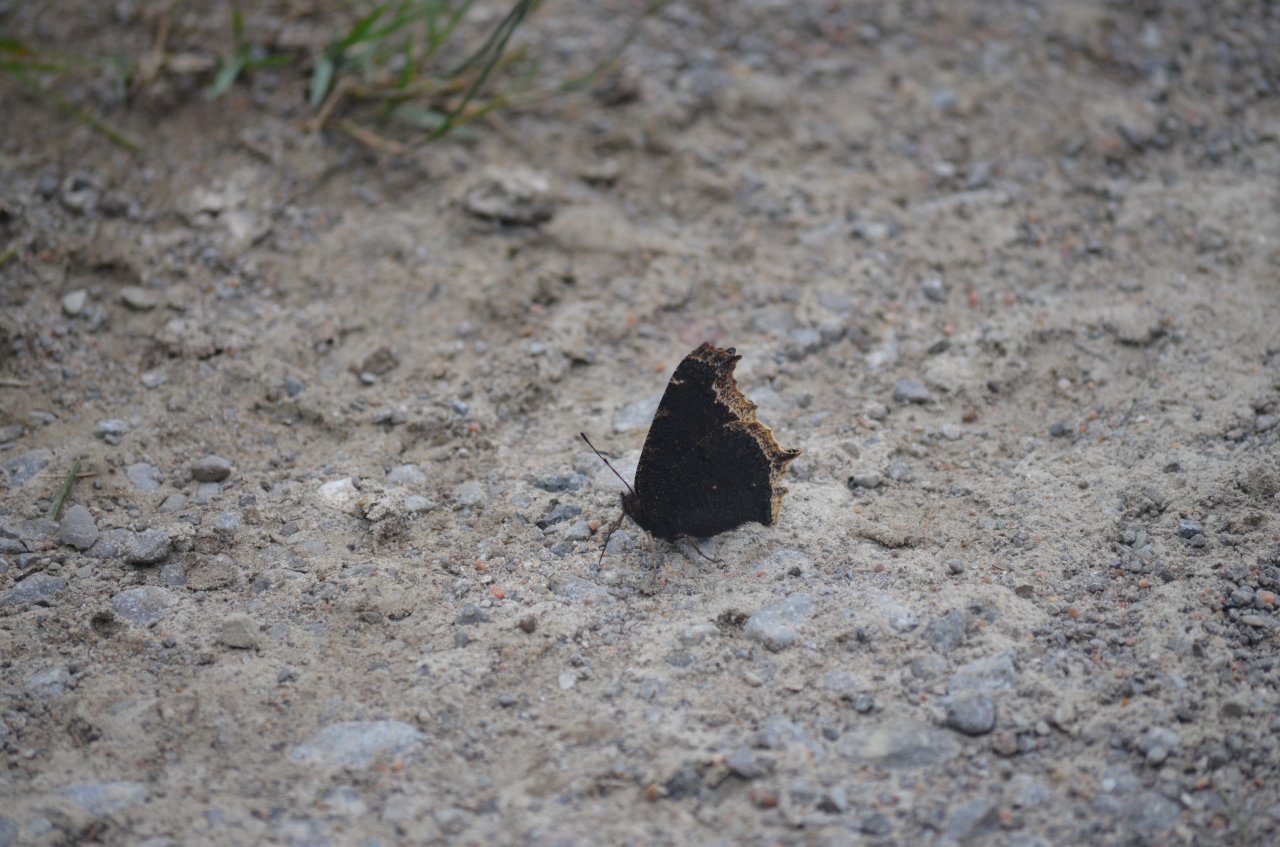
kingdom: Animalia
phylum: Arthropoda
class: Insecta
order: Lepidoptera
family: Nymphalidae
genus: Nymphalis
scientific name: Nymphalis antiopa
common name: Mourning Cloak
